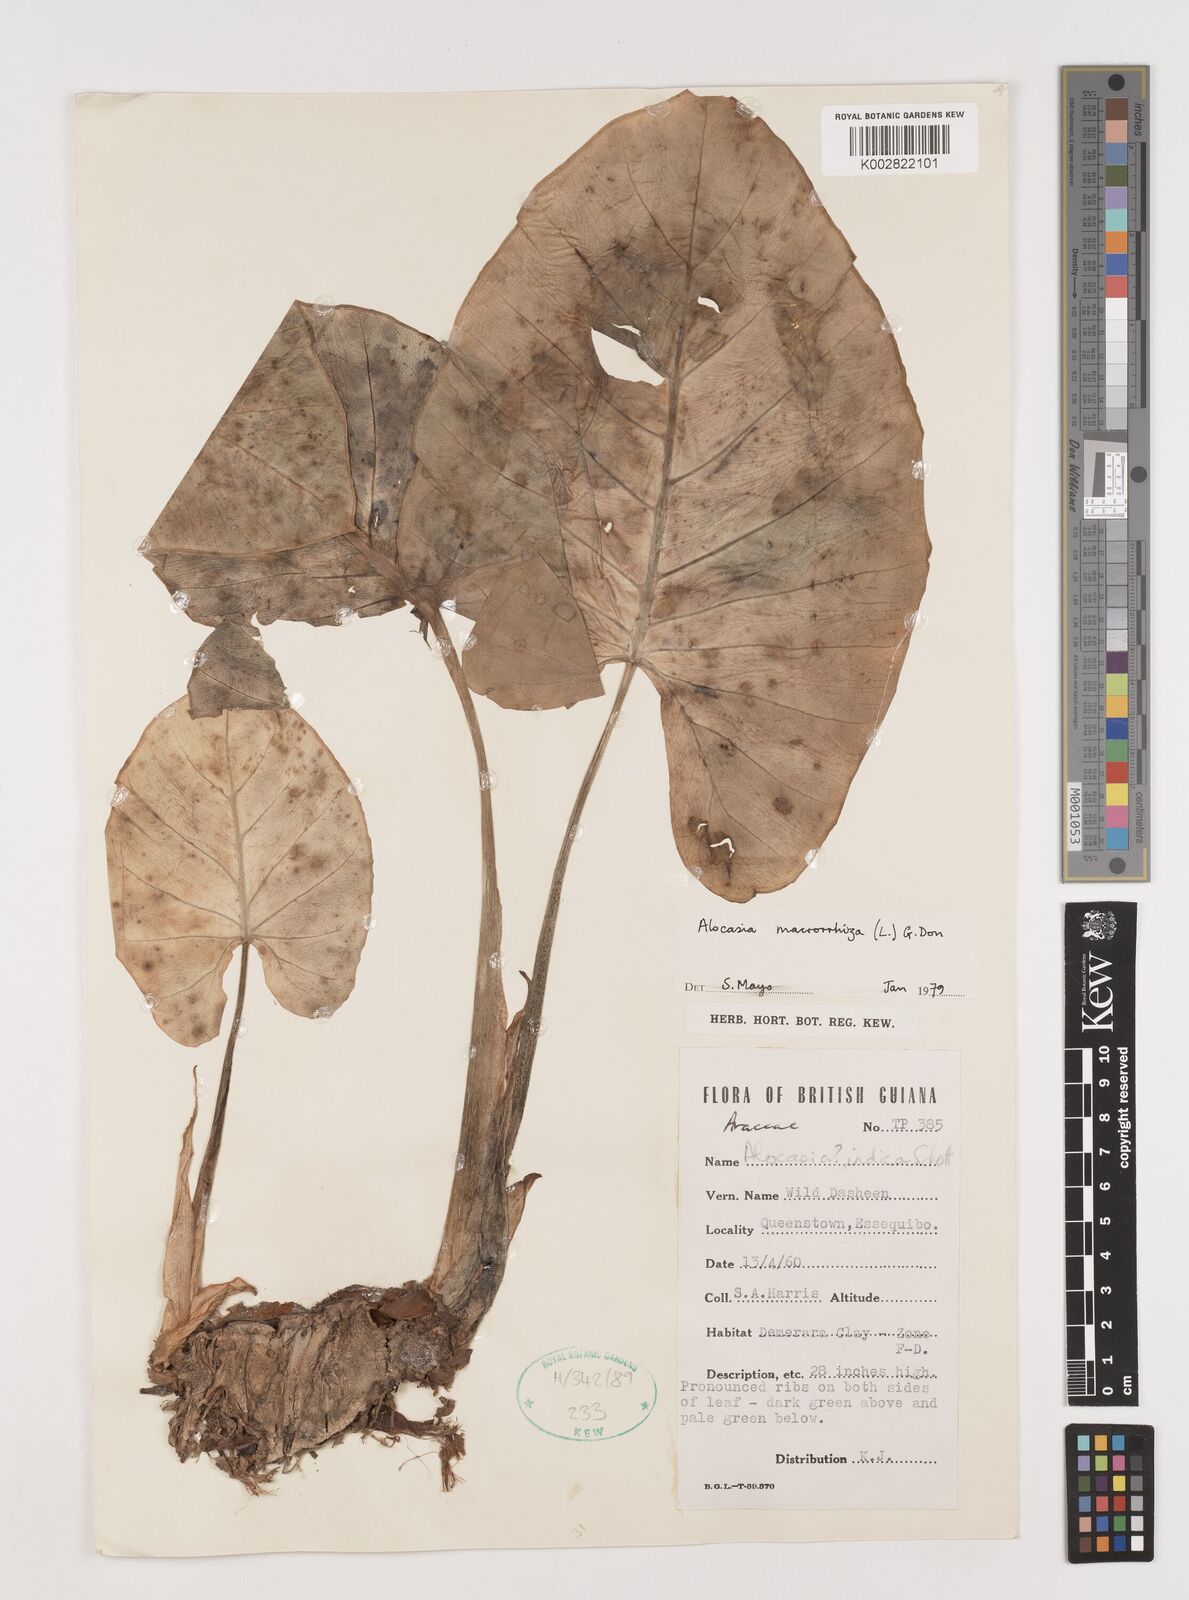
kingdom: Plantae
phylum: Tracheophyta
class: Liliopsida
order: Alismatales
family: Araceae
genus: Alocasia
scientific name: Alocasia macrorrhizos
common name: Giant taro
